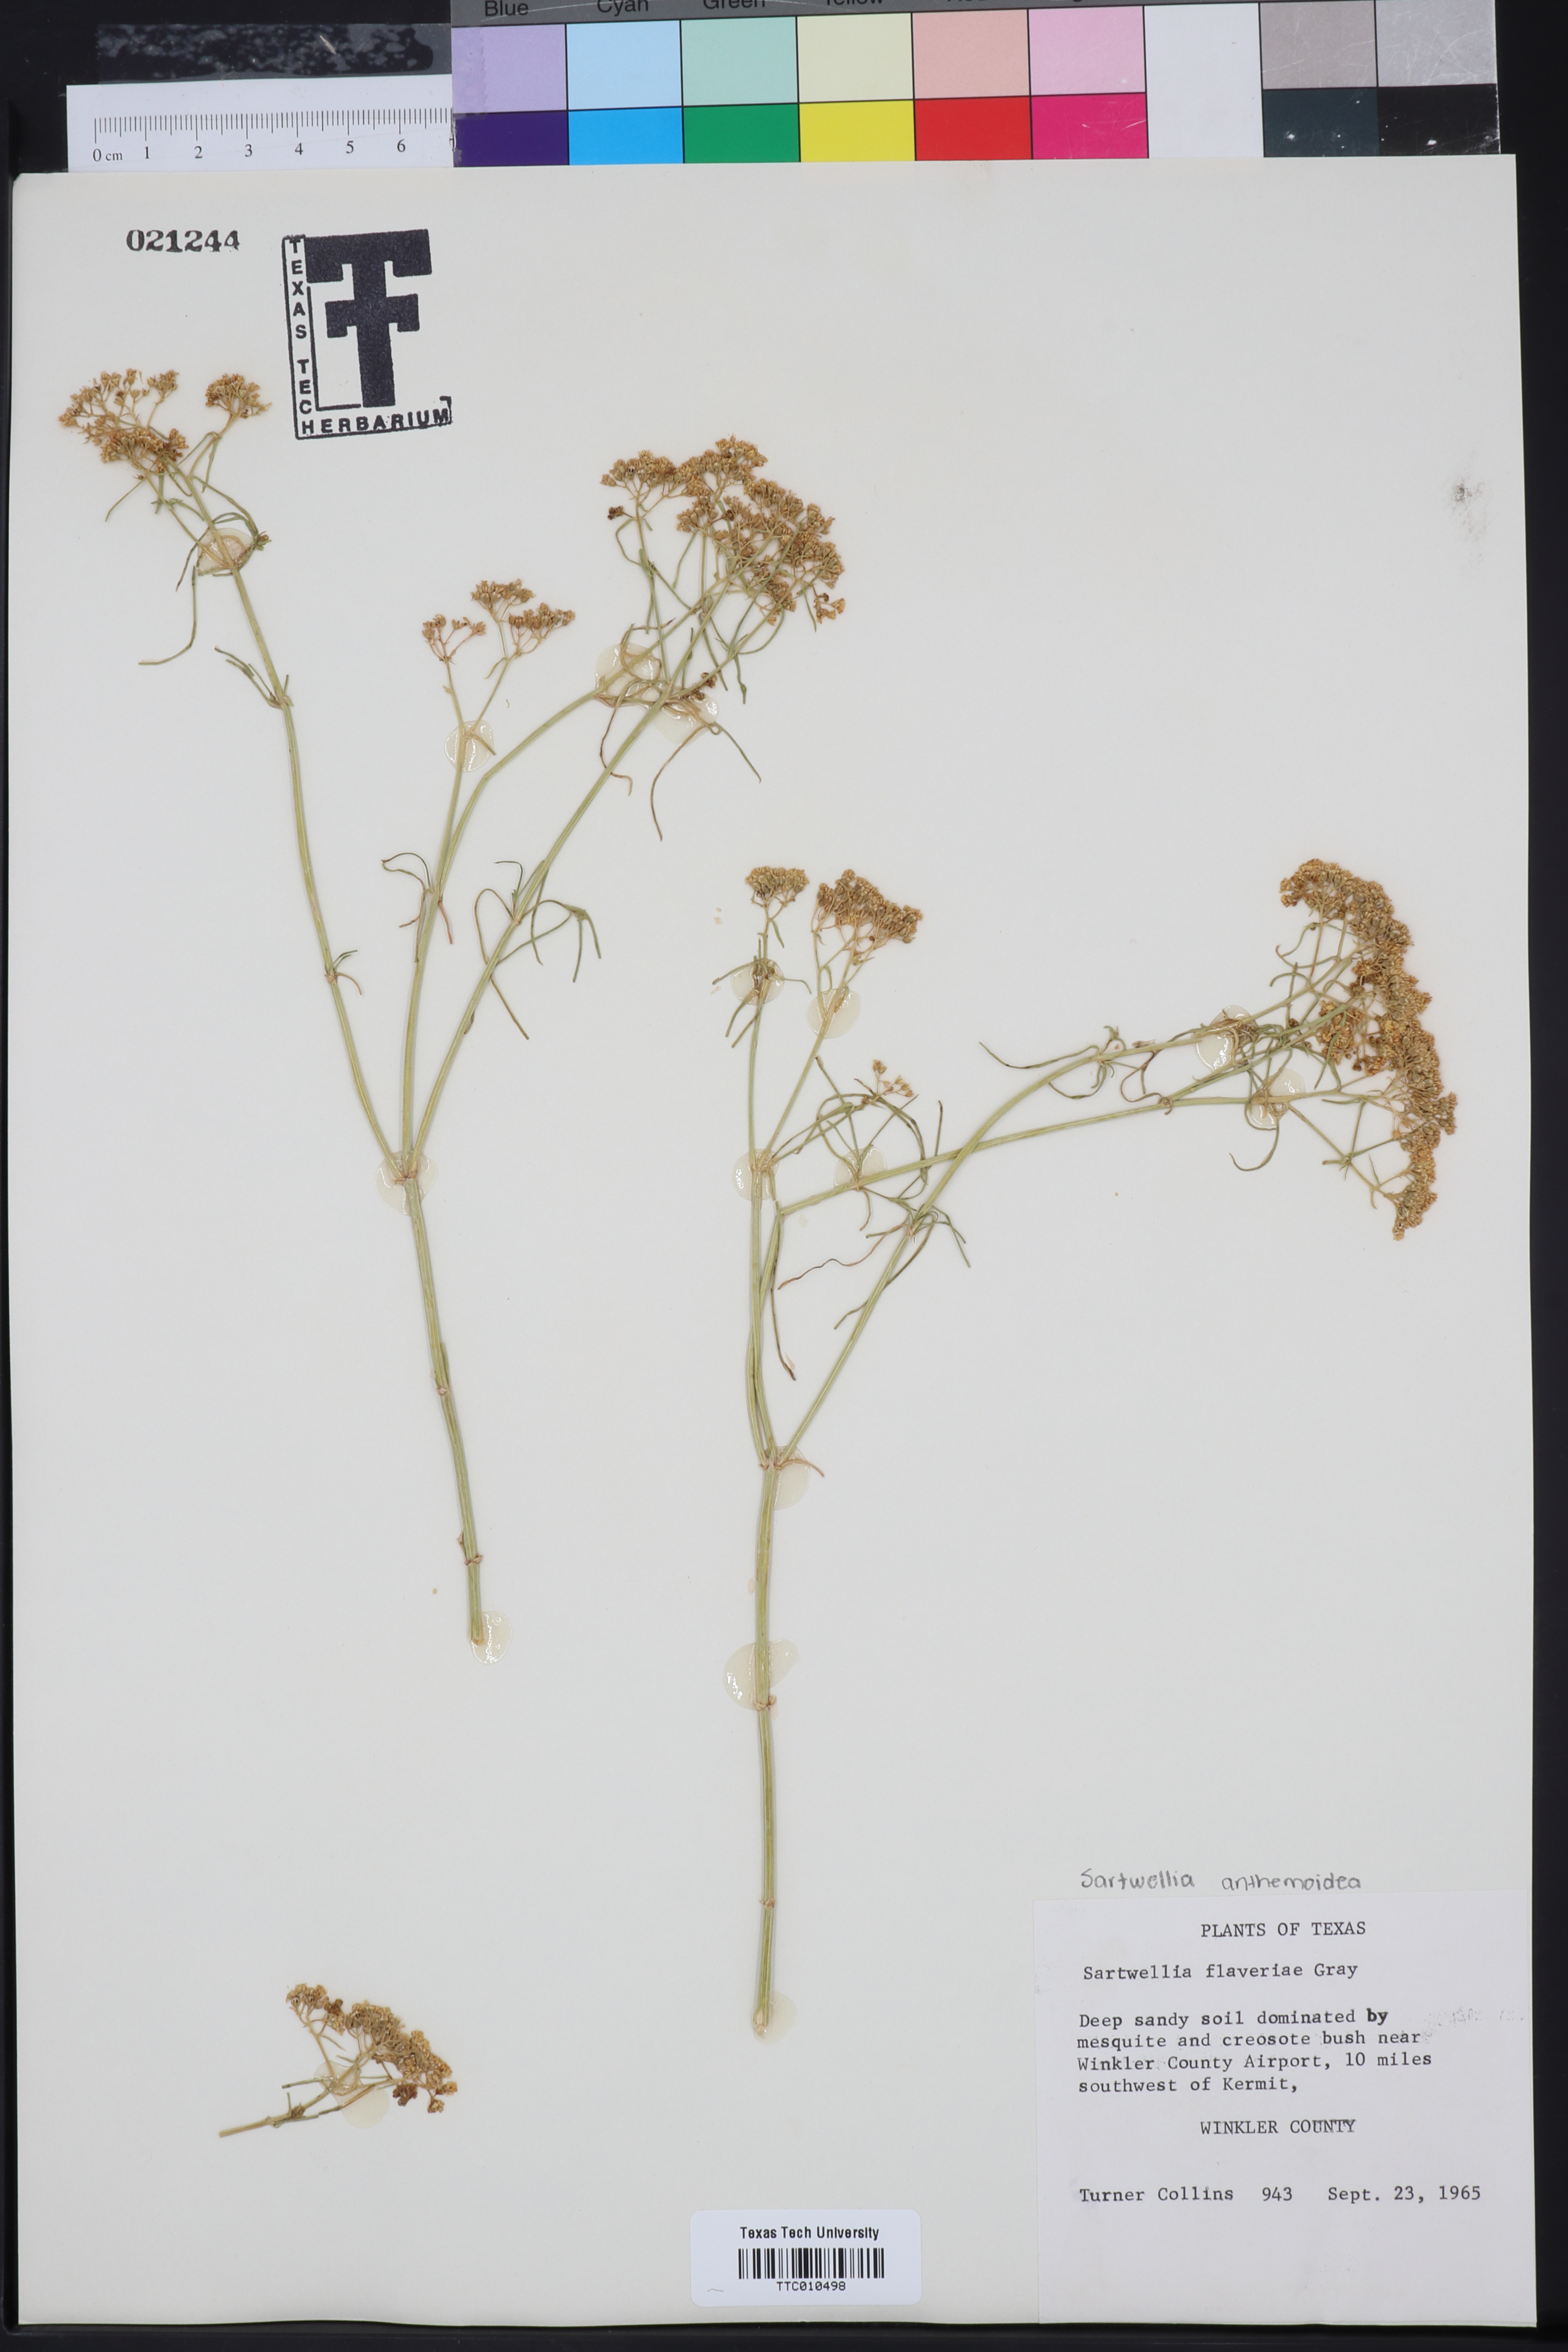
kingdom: Plantae
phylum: Tracheophyta
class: Magnoliopsida
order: Asterales
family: Asteraceae
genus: Sartwellia
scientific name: Sartwellia flaveriae
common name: Sartwellia
